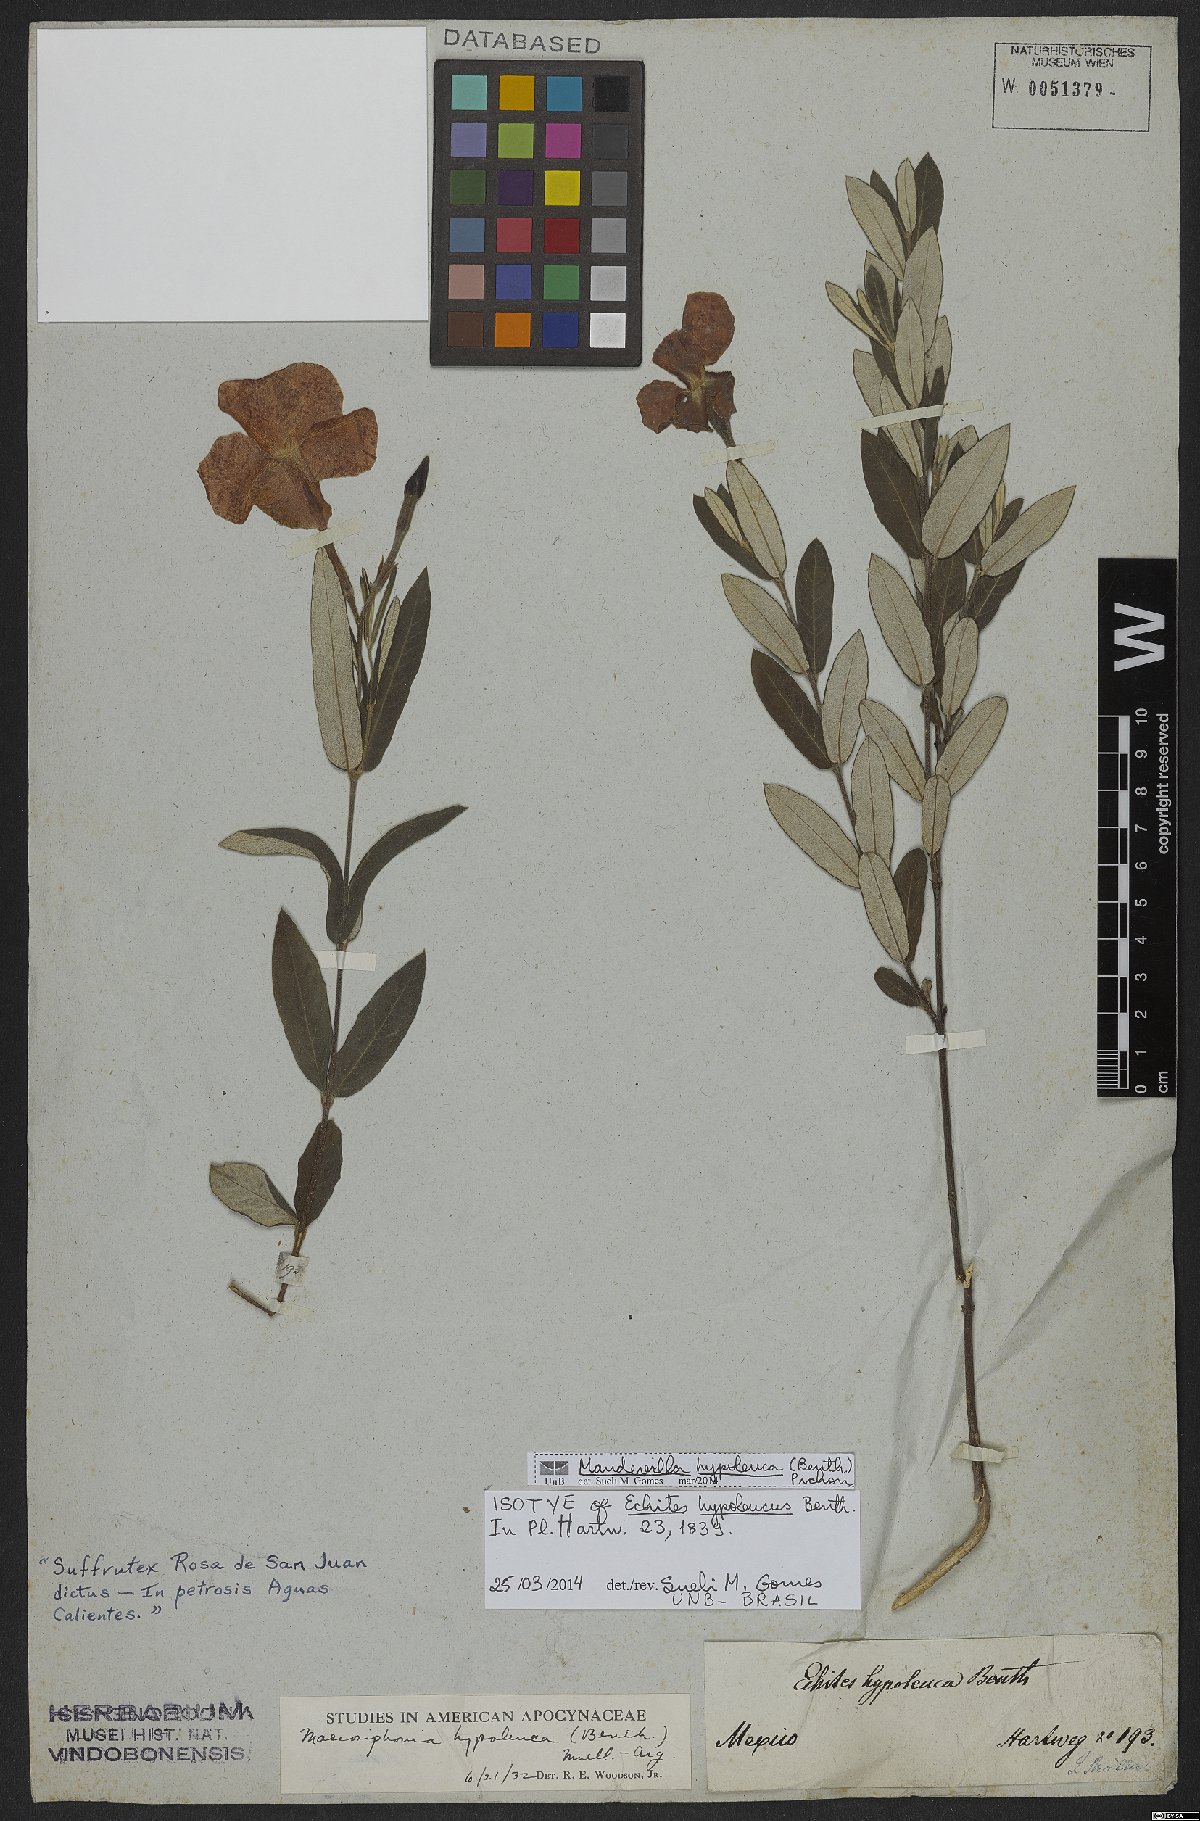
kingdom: Plantae
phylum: Tracheophyta
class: Magnoliopsida
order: Gentianales
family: Apocynaceae
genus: Mandevilla
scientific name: Mandevilla hypoleuca
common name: Davis mountain rocktrumpet
